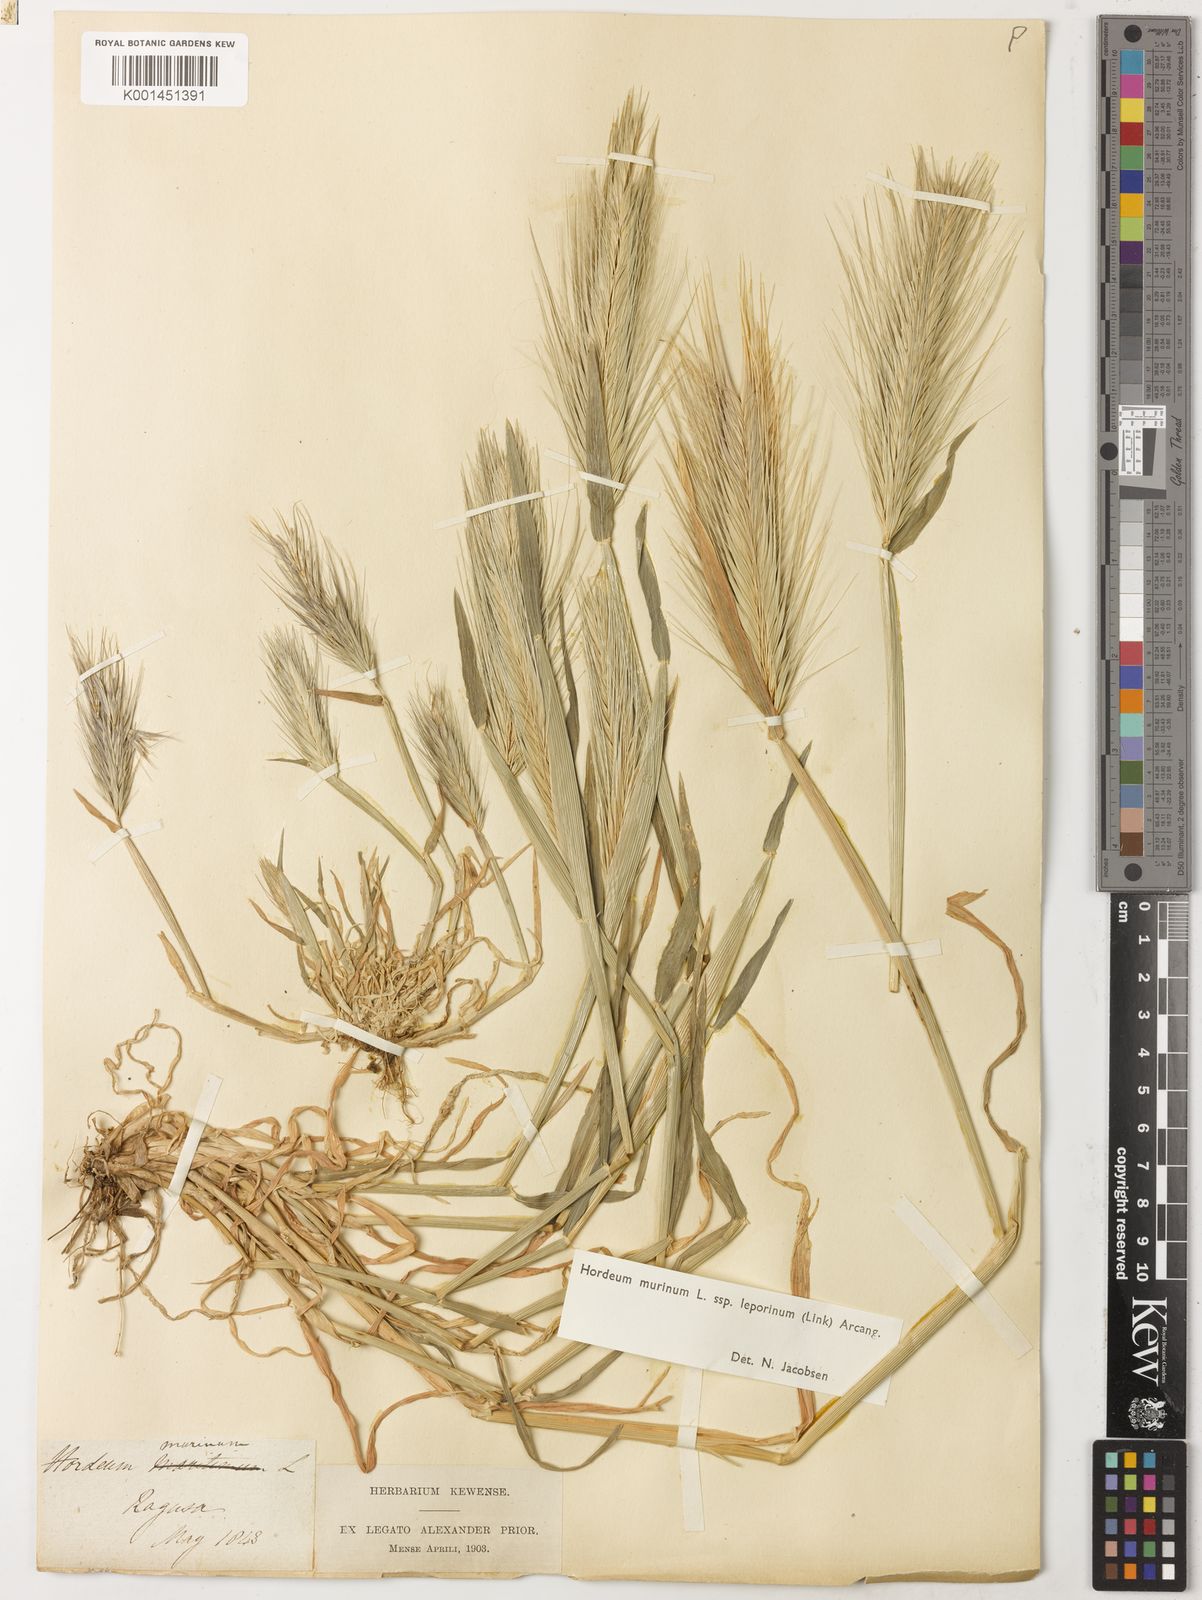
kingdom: Plantae
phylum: Tracheophyta
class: Liliopsida
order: Poales
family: Poaceae
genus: Hordeum
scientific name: Hordeum murinum
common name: Wall barley
